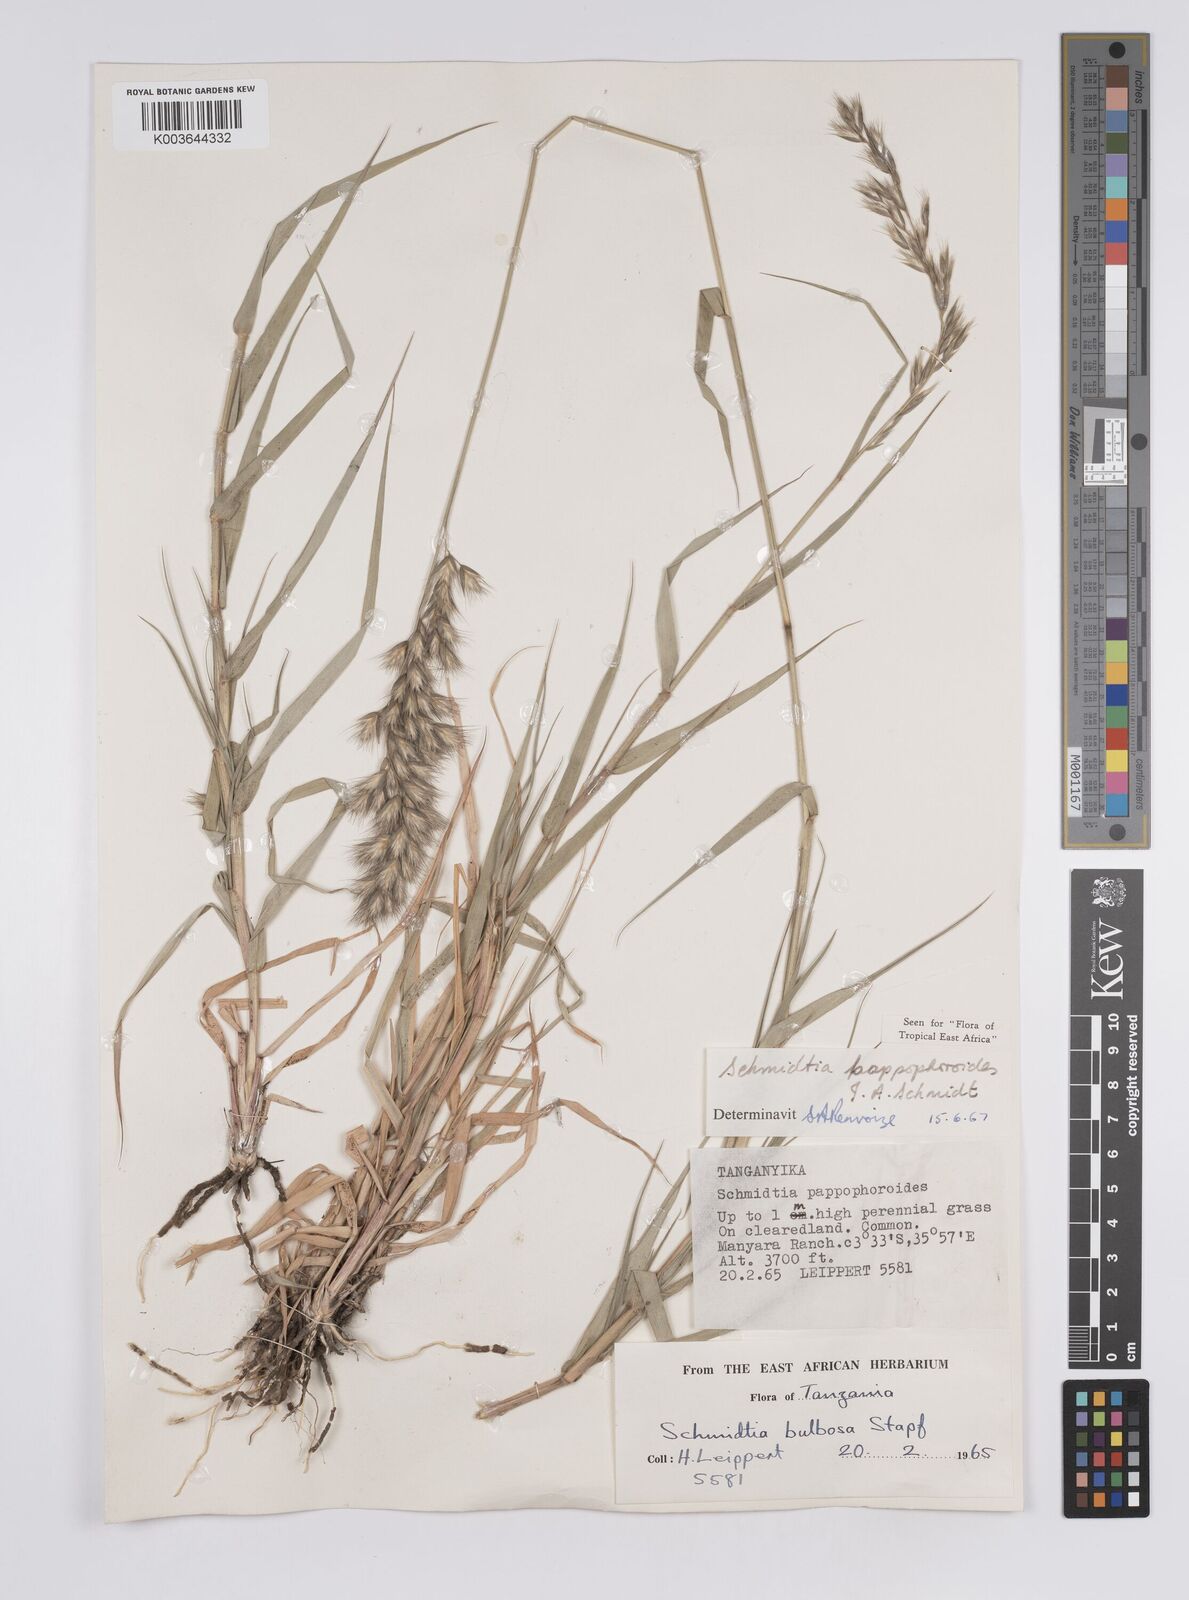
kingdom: Plantae
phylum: Tracheophyta
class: Liliopsida
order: Poales
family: Poaceae
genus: Schmidtia
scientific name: Schmidtia pappophoroides
